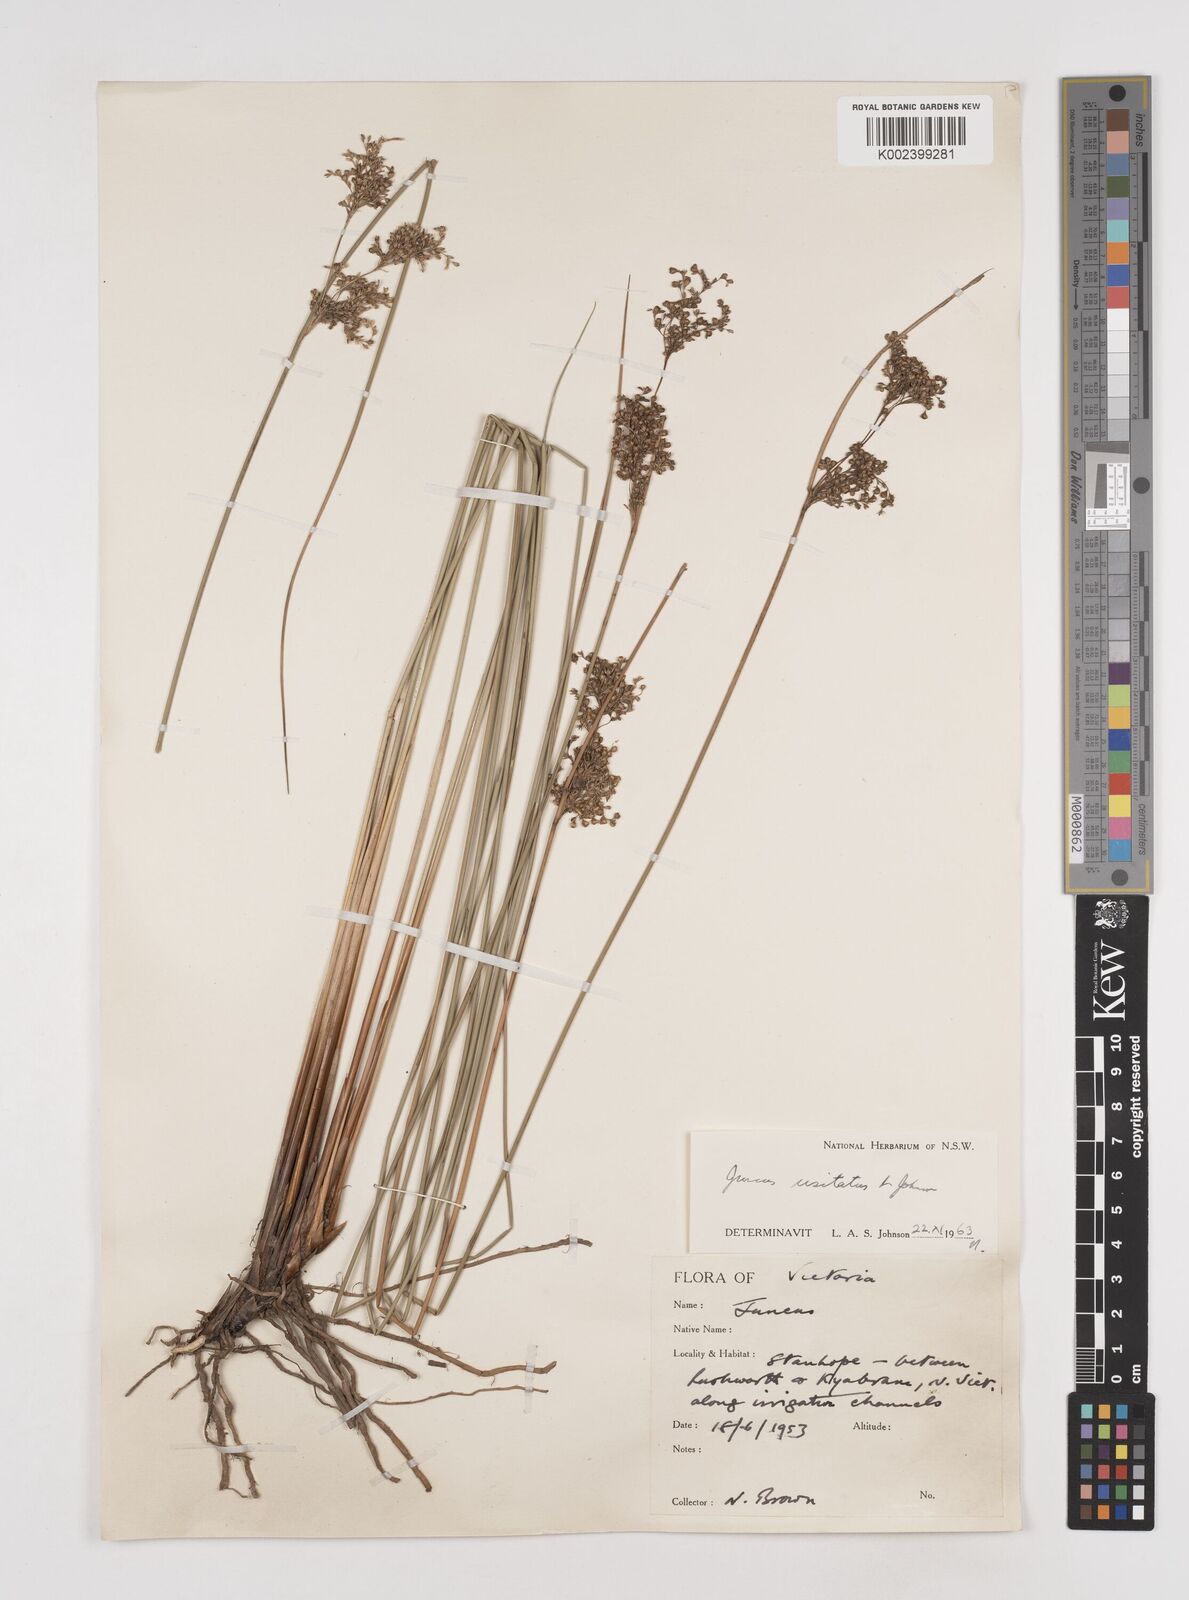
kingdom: Plantae
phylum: Tracheophyta
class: Liliopsida
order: Poales
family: Juncaceae
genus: Juncus
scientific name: Juncus usitatus
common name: Rush
